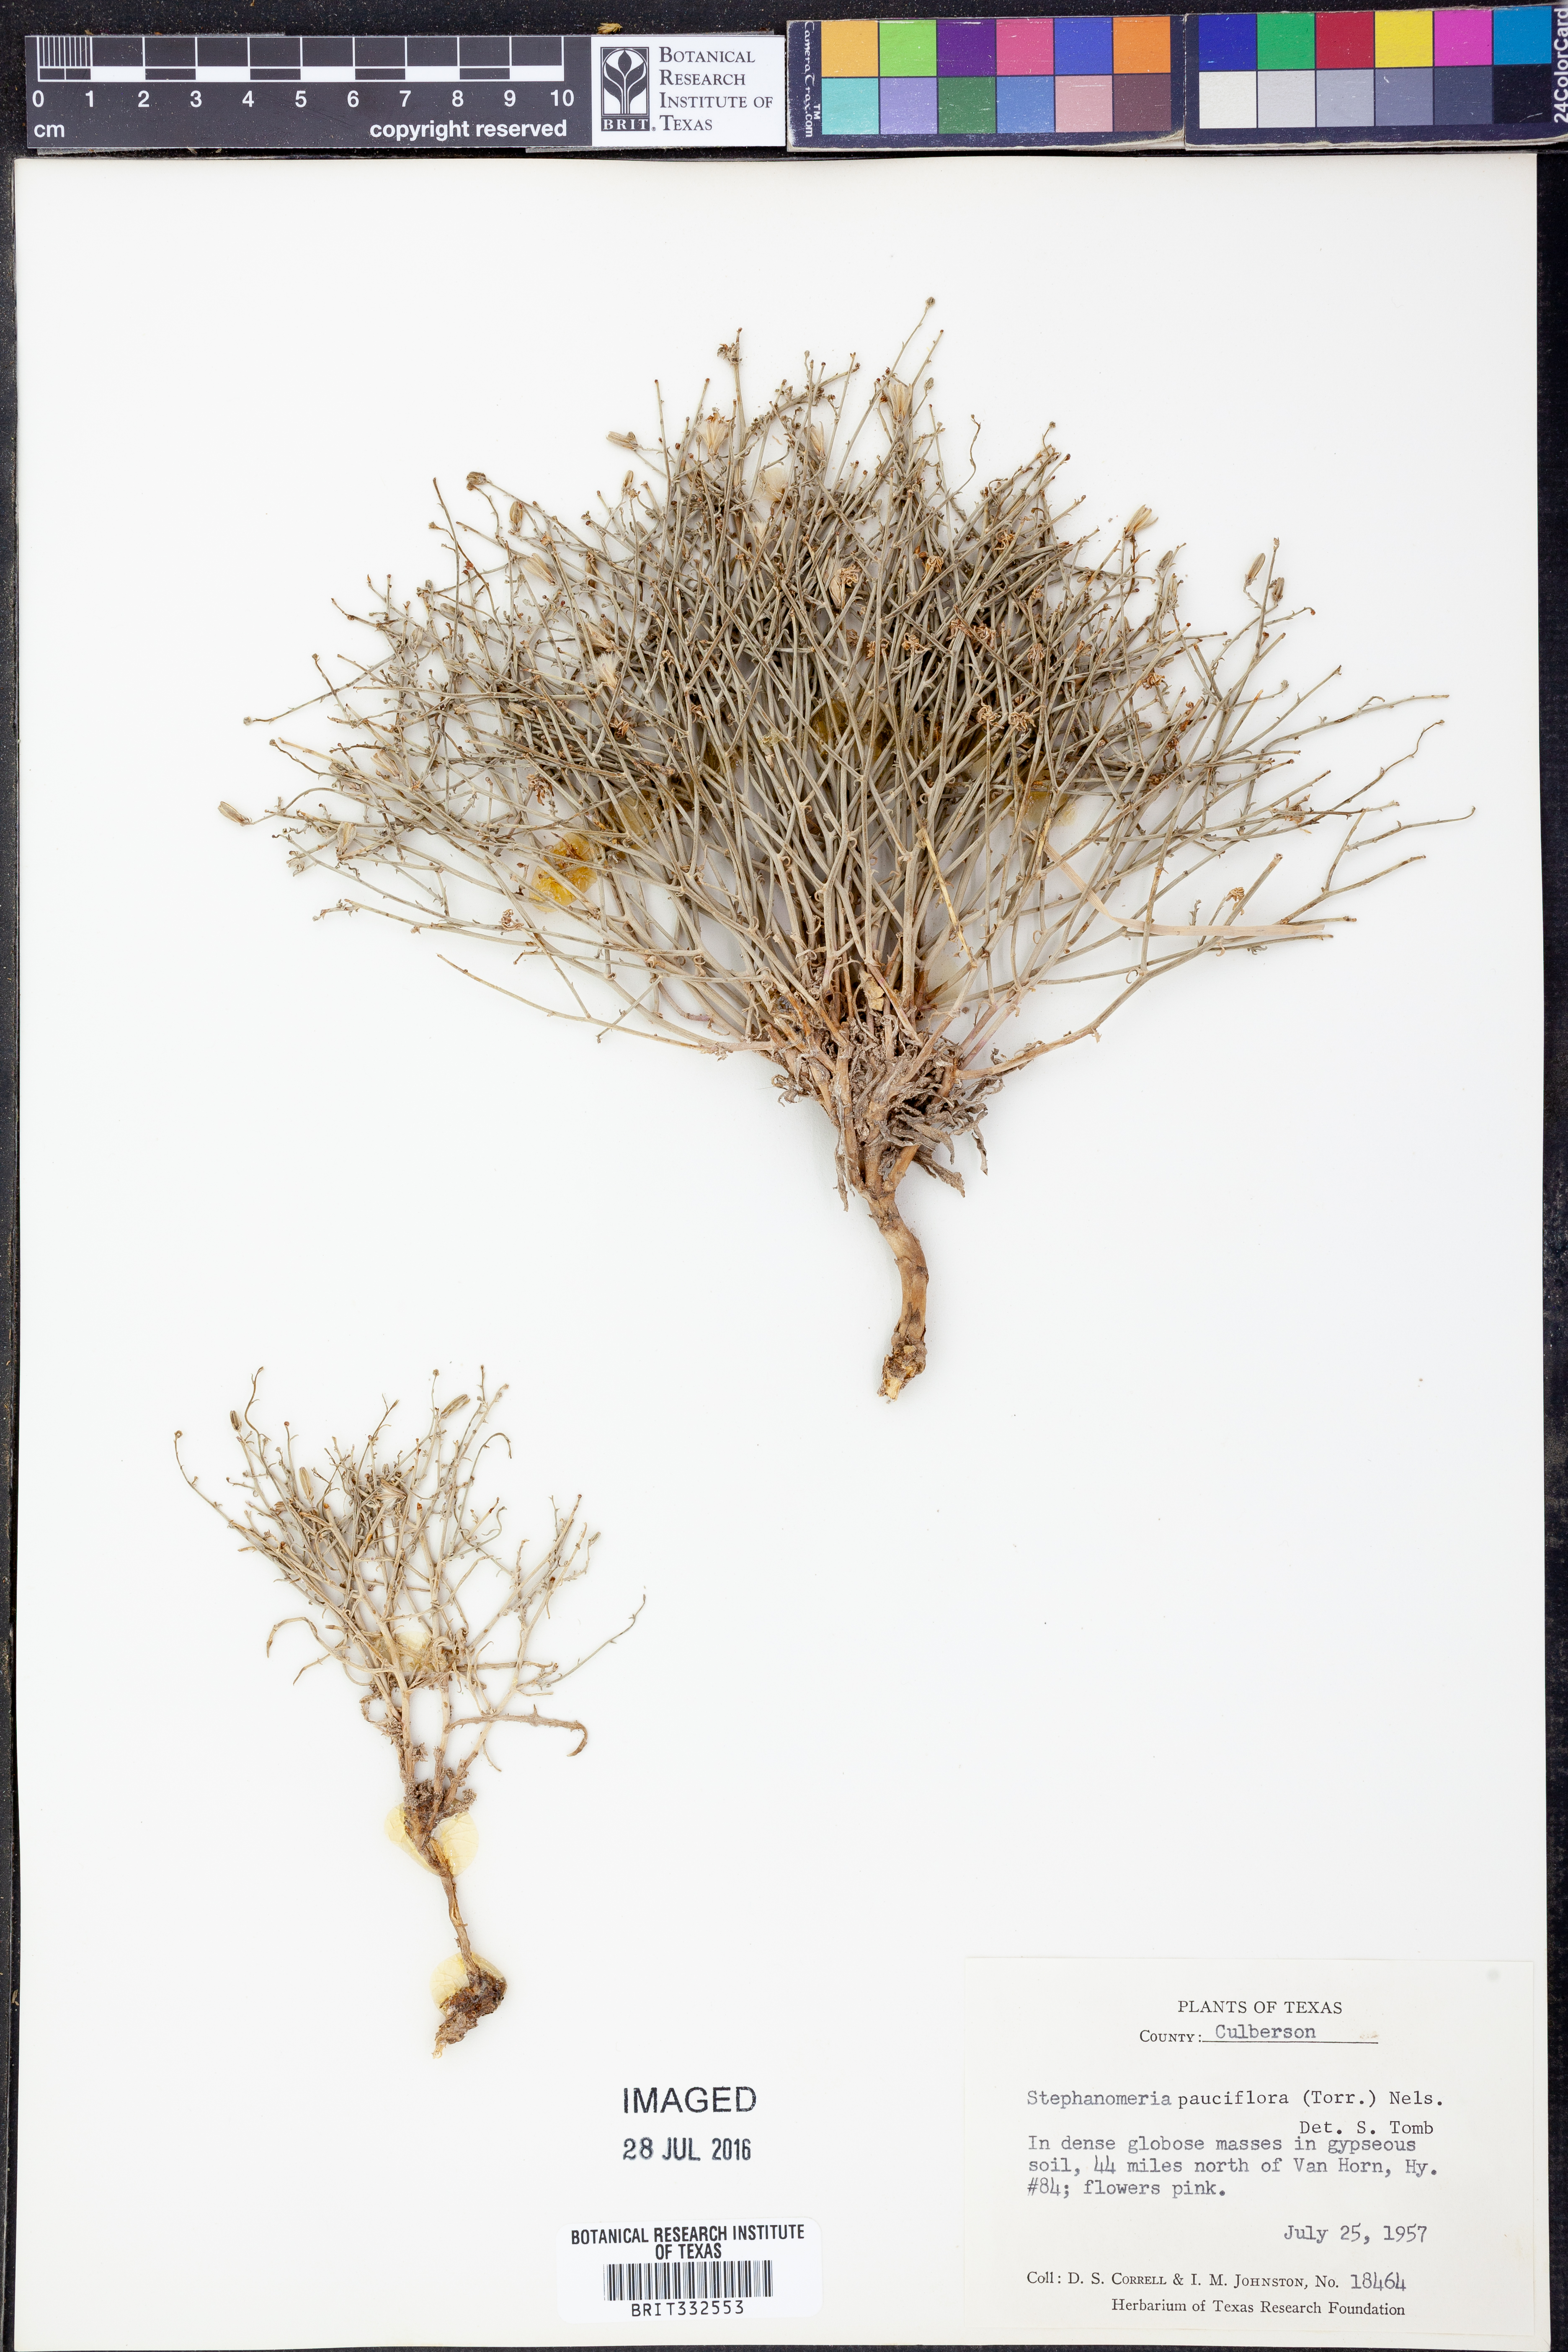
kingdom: Plantae
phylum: Tracheophyta
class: Magnoliopsida
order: Asterales
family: Asteraceae
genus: Stephanomeria
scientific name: Stephanomeria pauciflora
